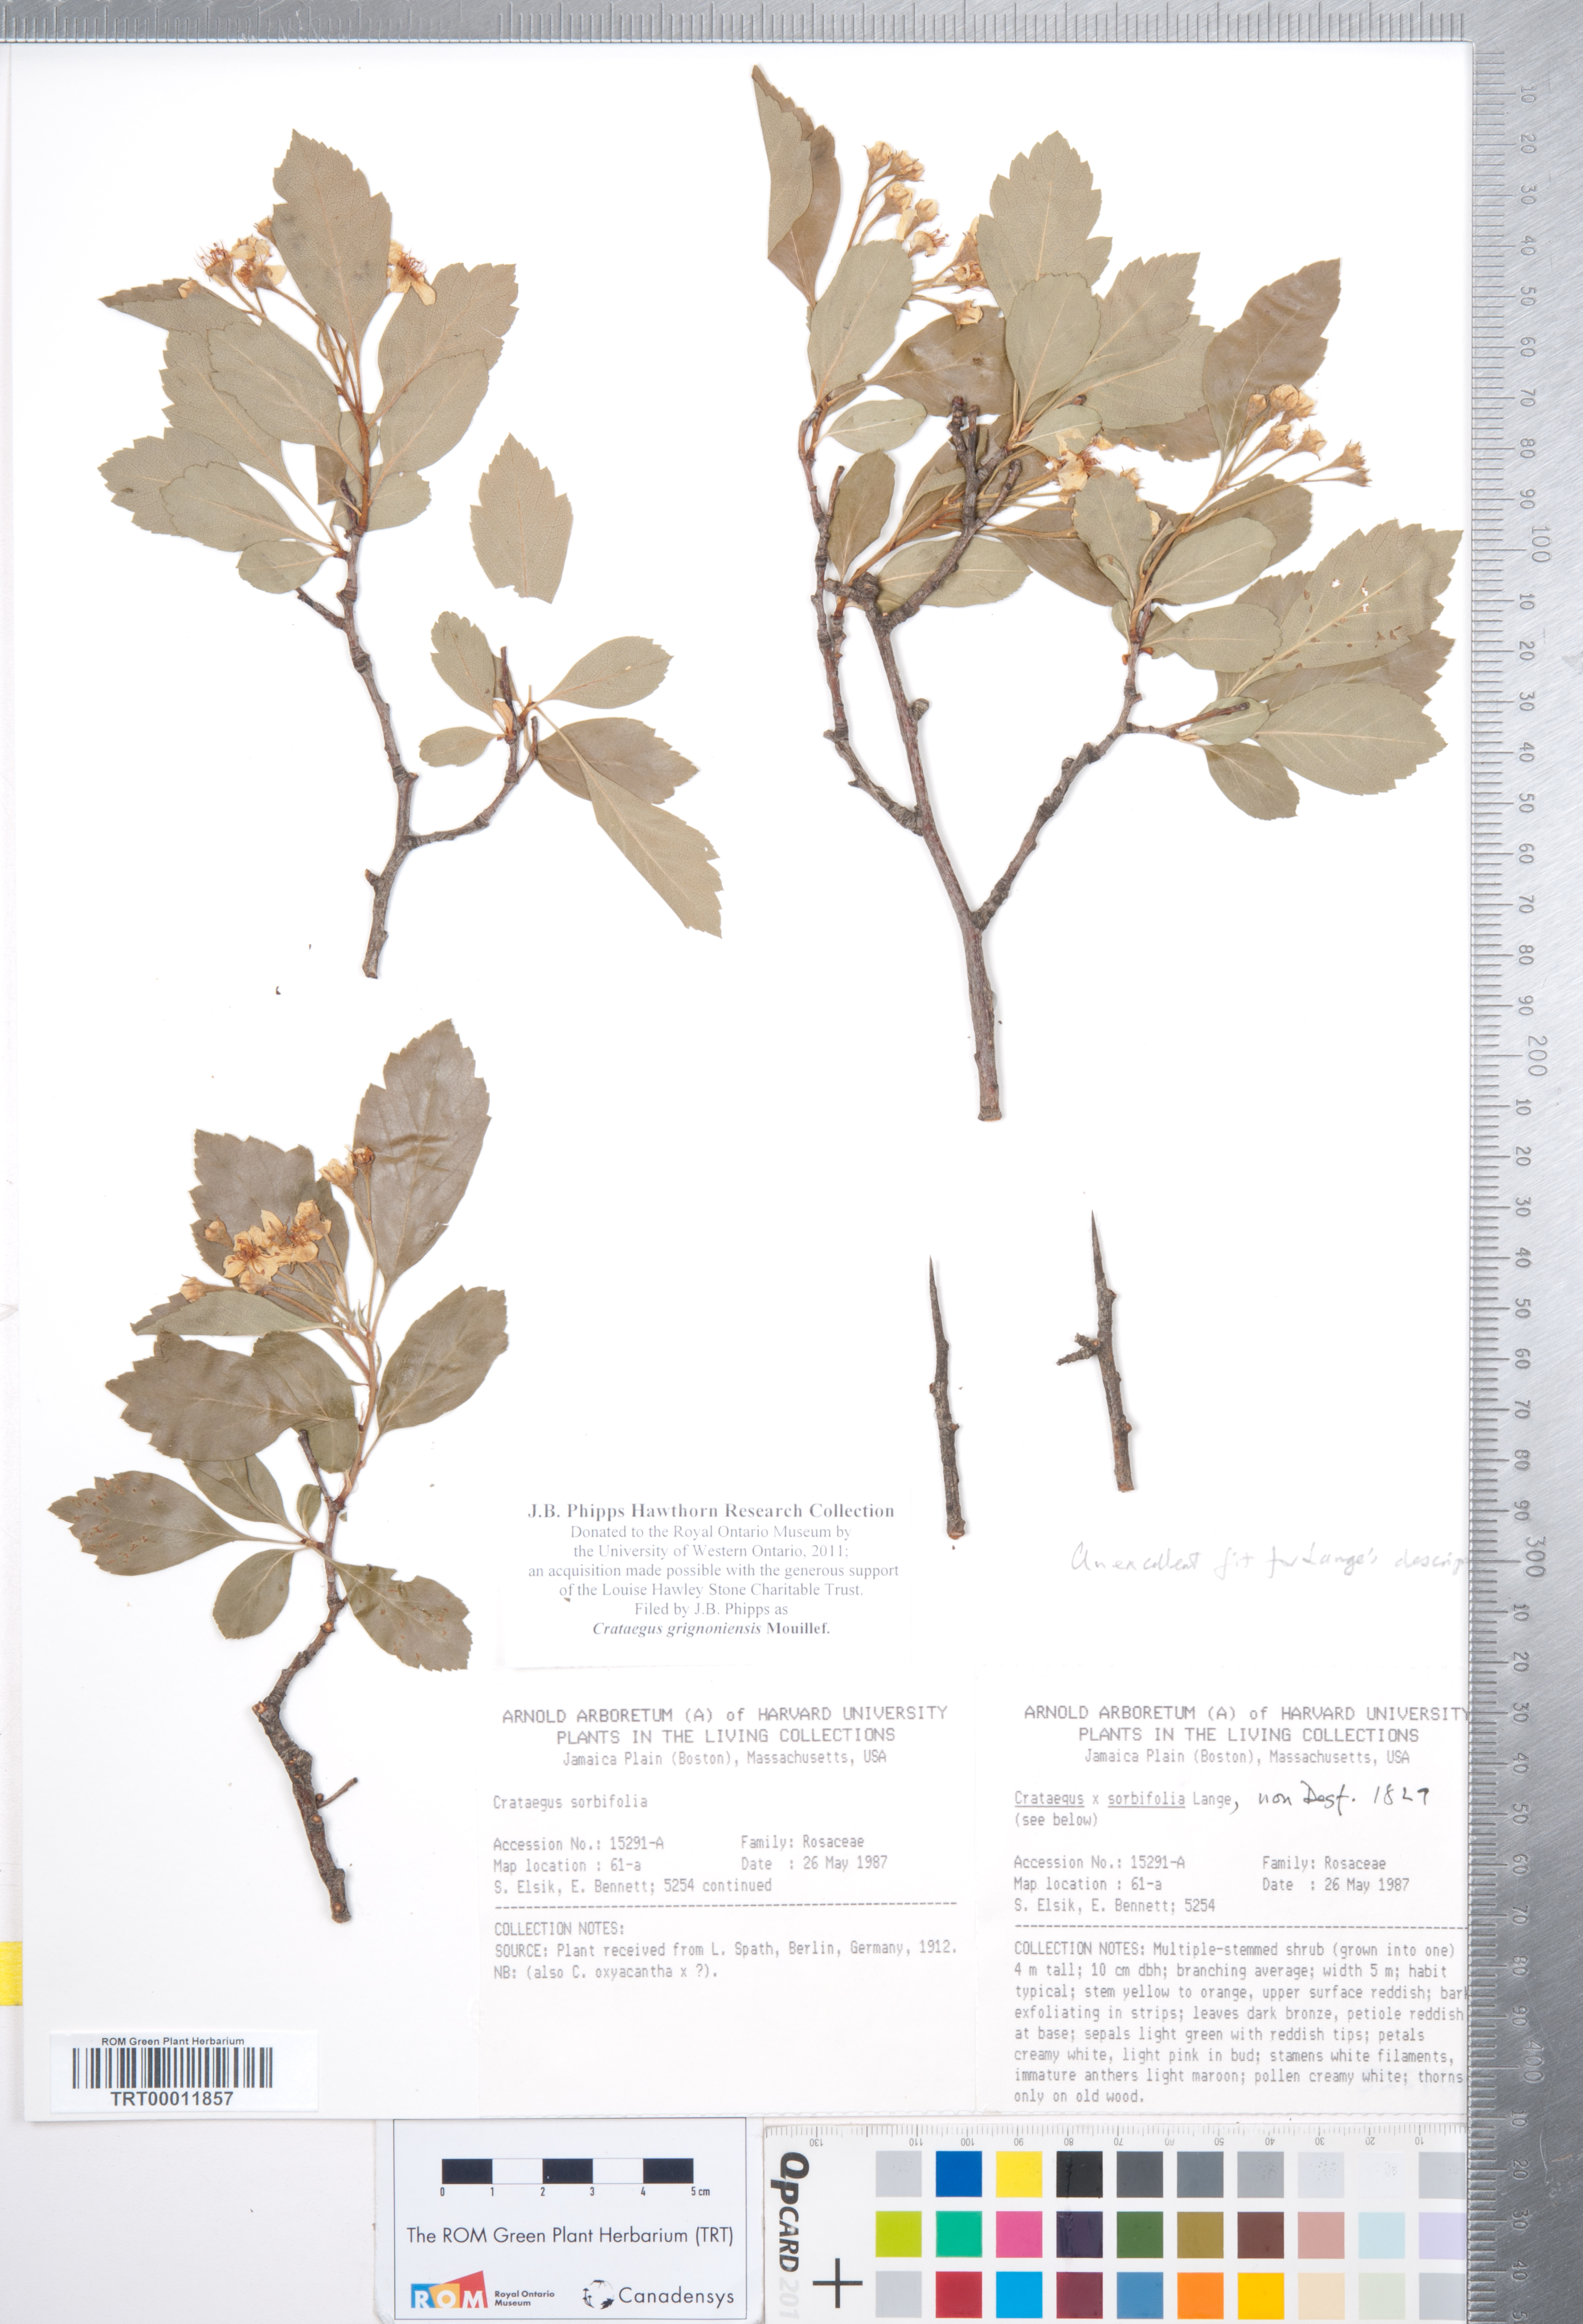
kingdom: Plantae
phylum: Tracheophyta
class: Magnoliopsida
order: Rosales
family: Rosaceae
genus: Crataegus
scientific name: Crataegus grignonensis
